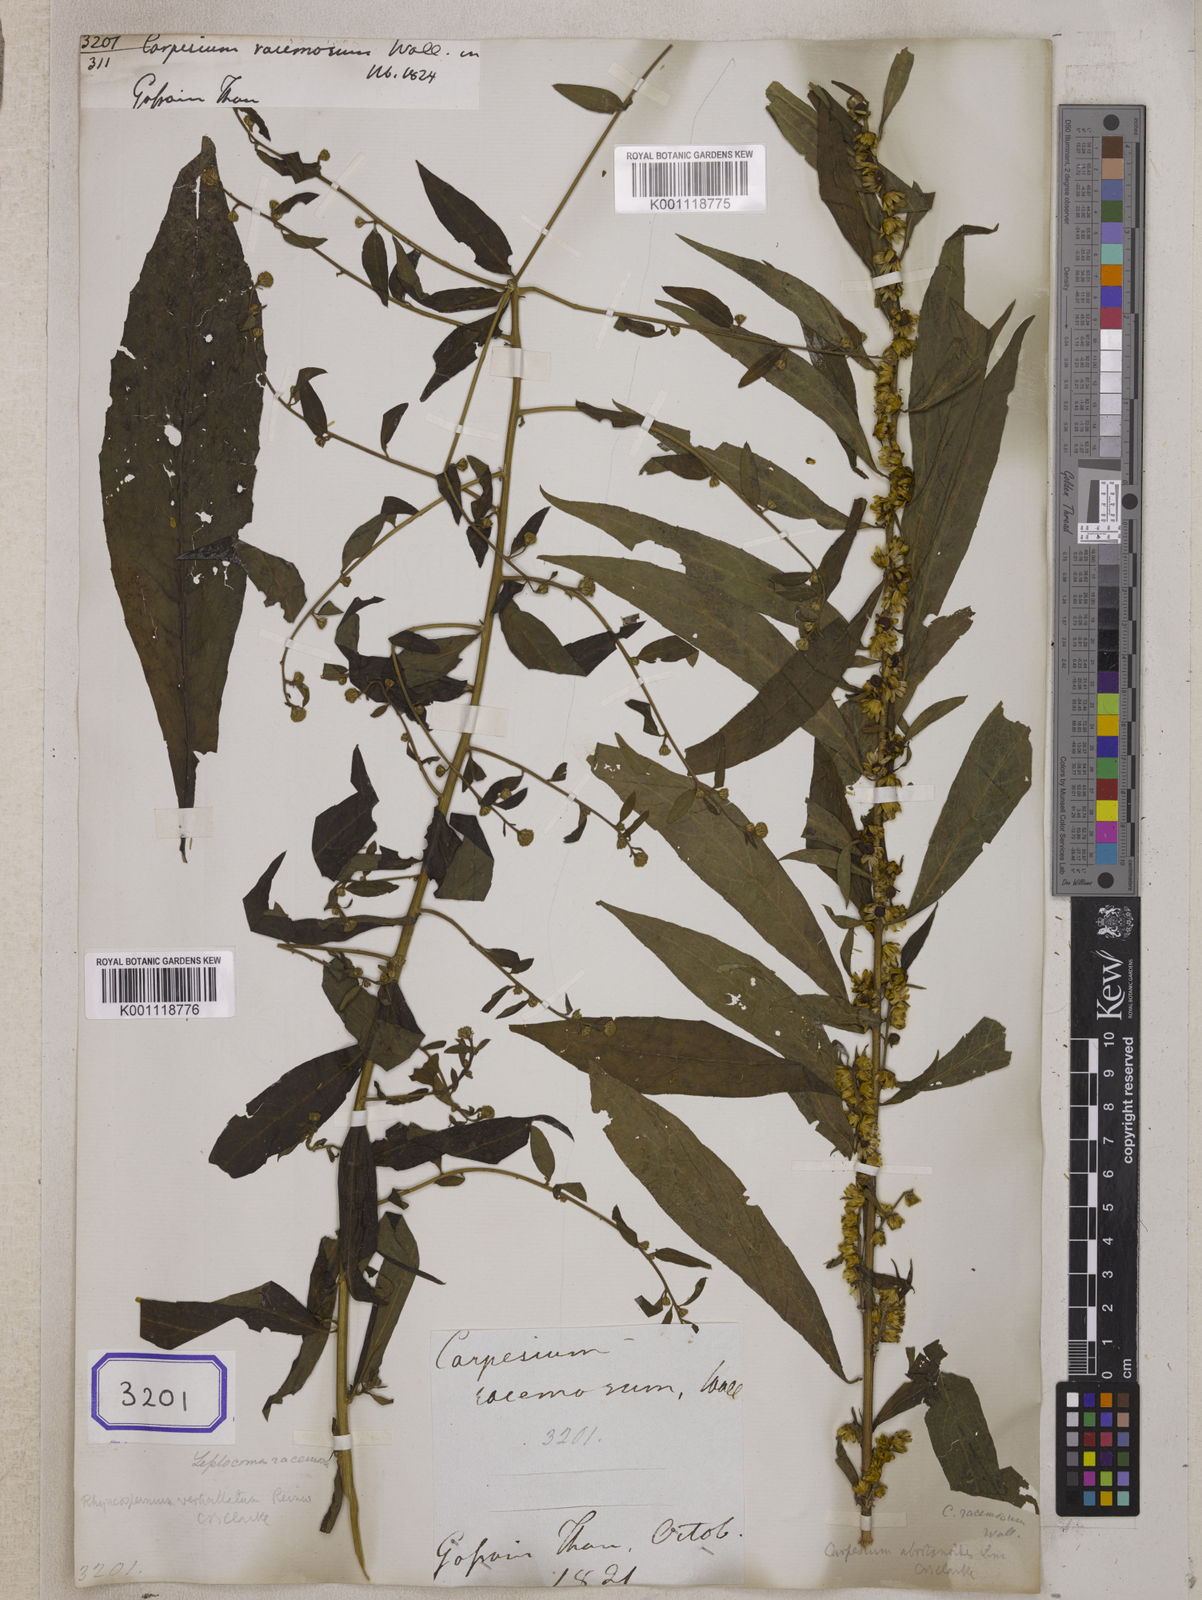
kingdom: Plantae
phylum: Tracheophyta
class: Magnoliopsida
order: Asterales
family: Asteraceae
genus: Carpesium
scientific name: Carpesium abrotanoides
